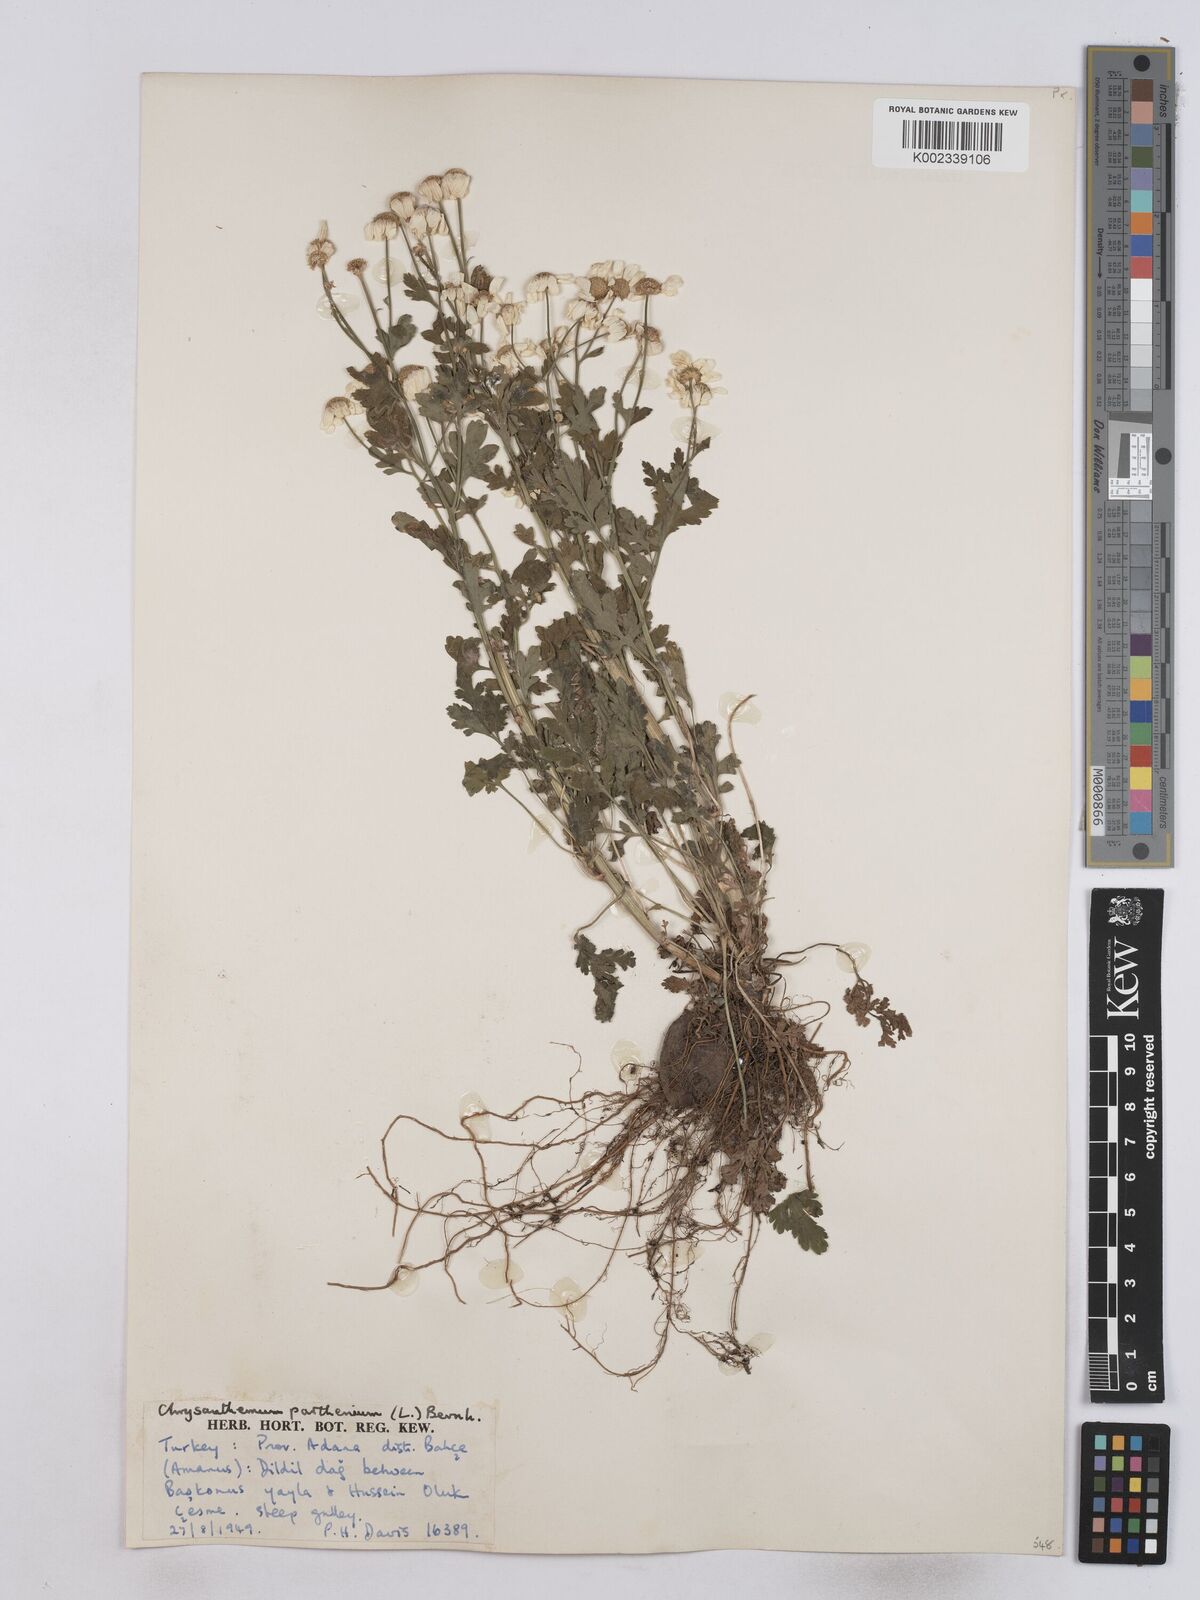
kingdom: Plantae
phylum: Tracheophyta
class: Magnoliopsida
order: Asterales
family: Asteraceae
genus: Tanacetum
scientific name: Tanacetum parthenium
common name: Feverfew
